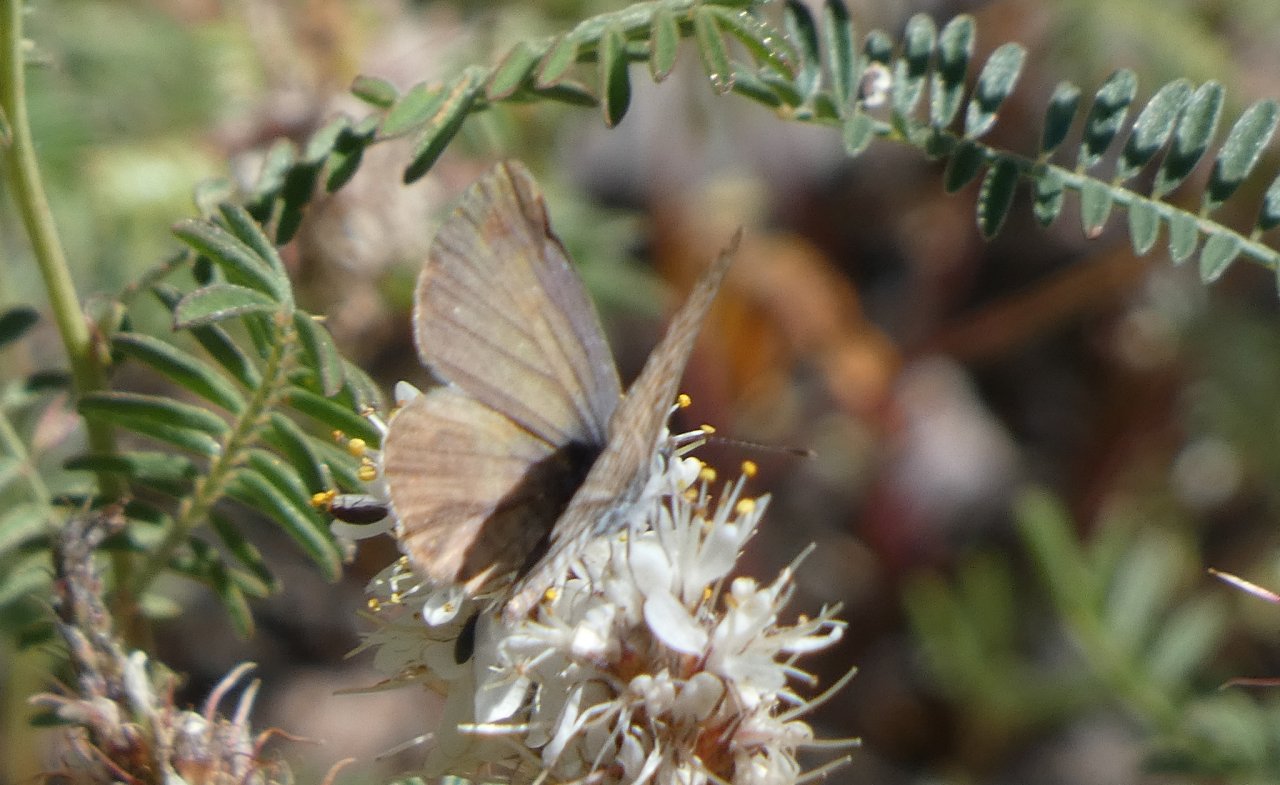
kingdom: Animalia
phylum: Arthropoda
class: Insecta
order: Lepidoptera
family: Lycaenidae
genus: Leptotes
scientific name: Leptotes marina
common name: Marine Blue
